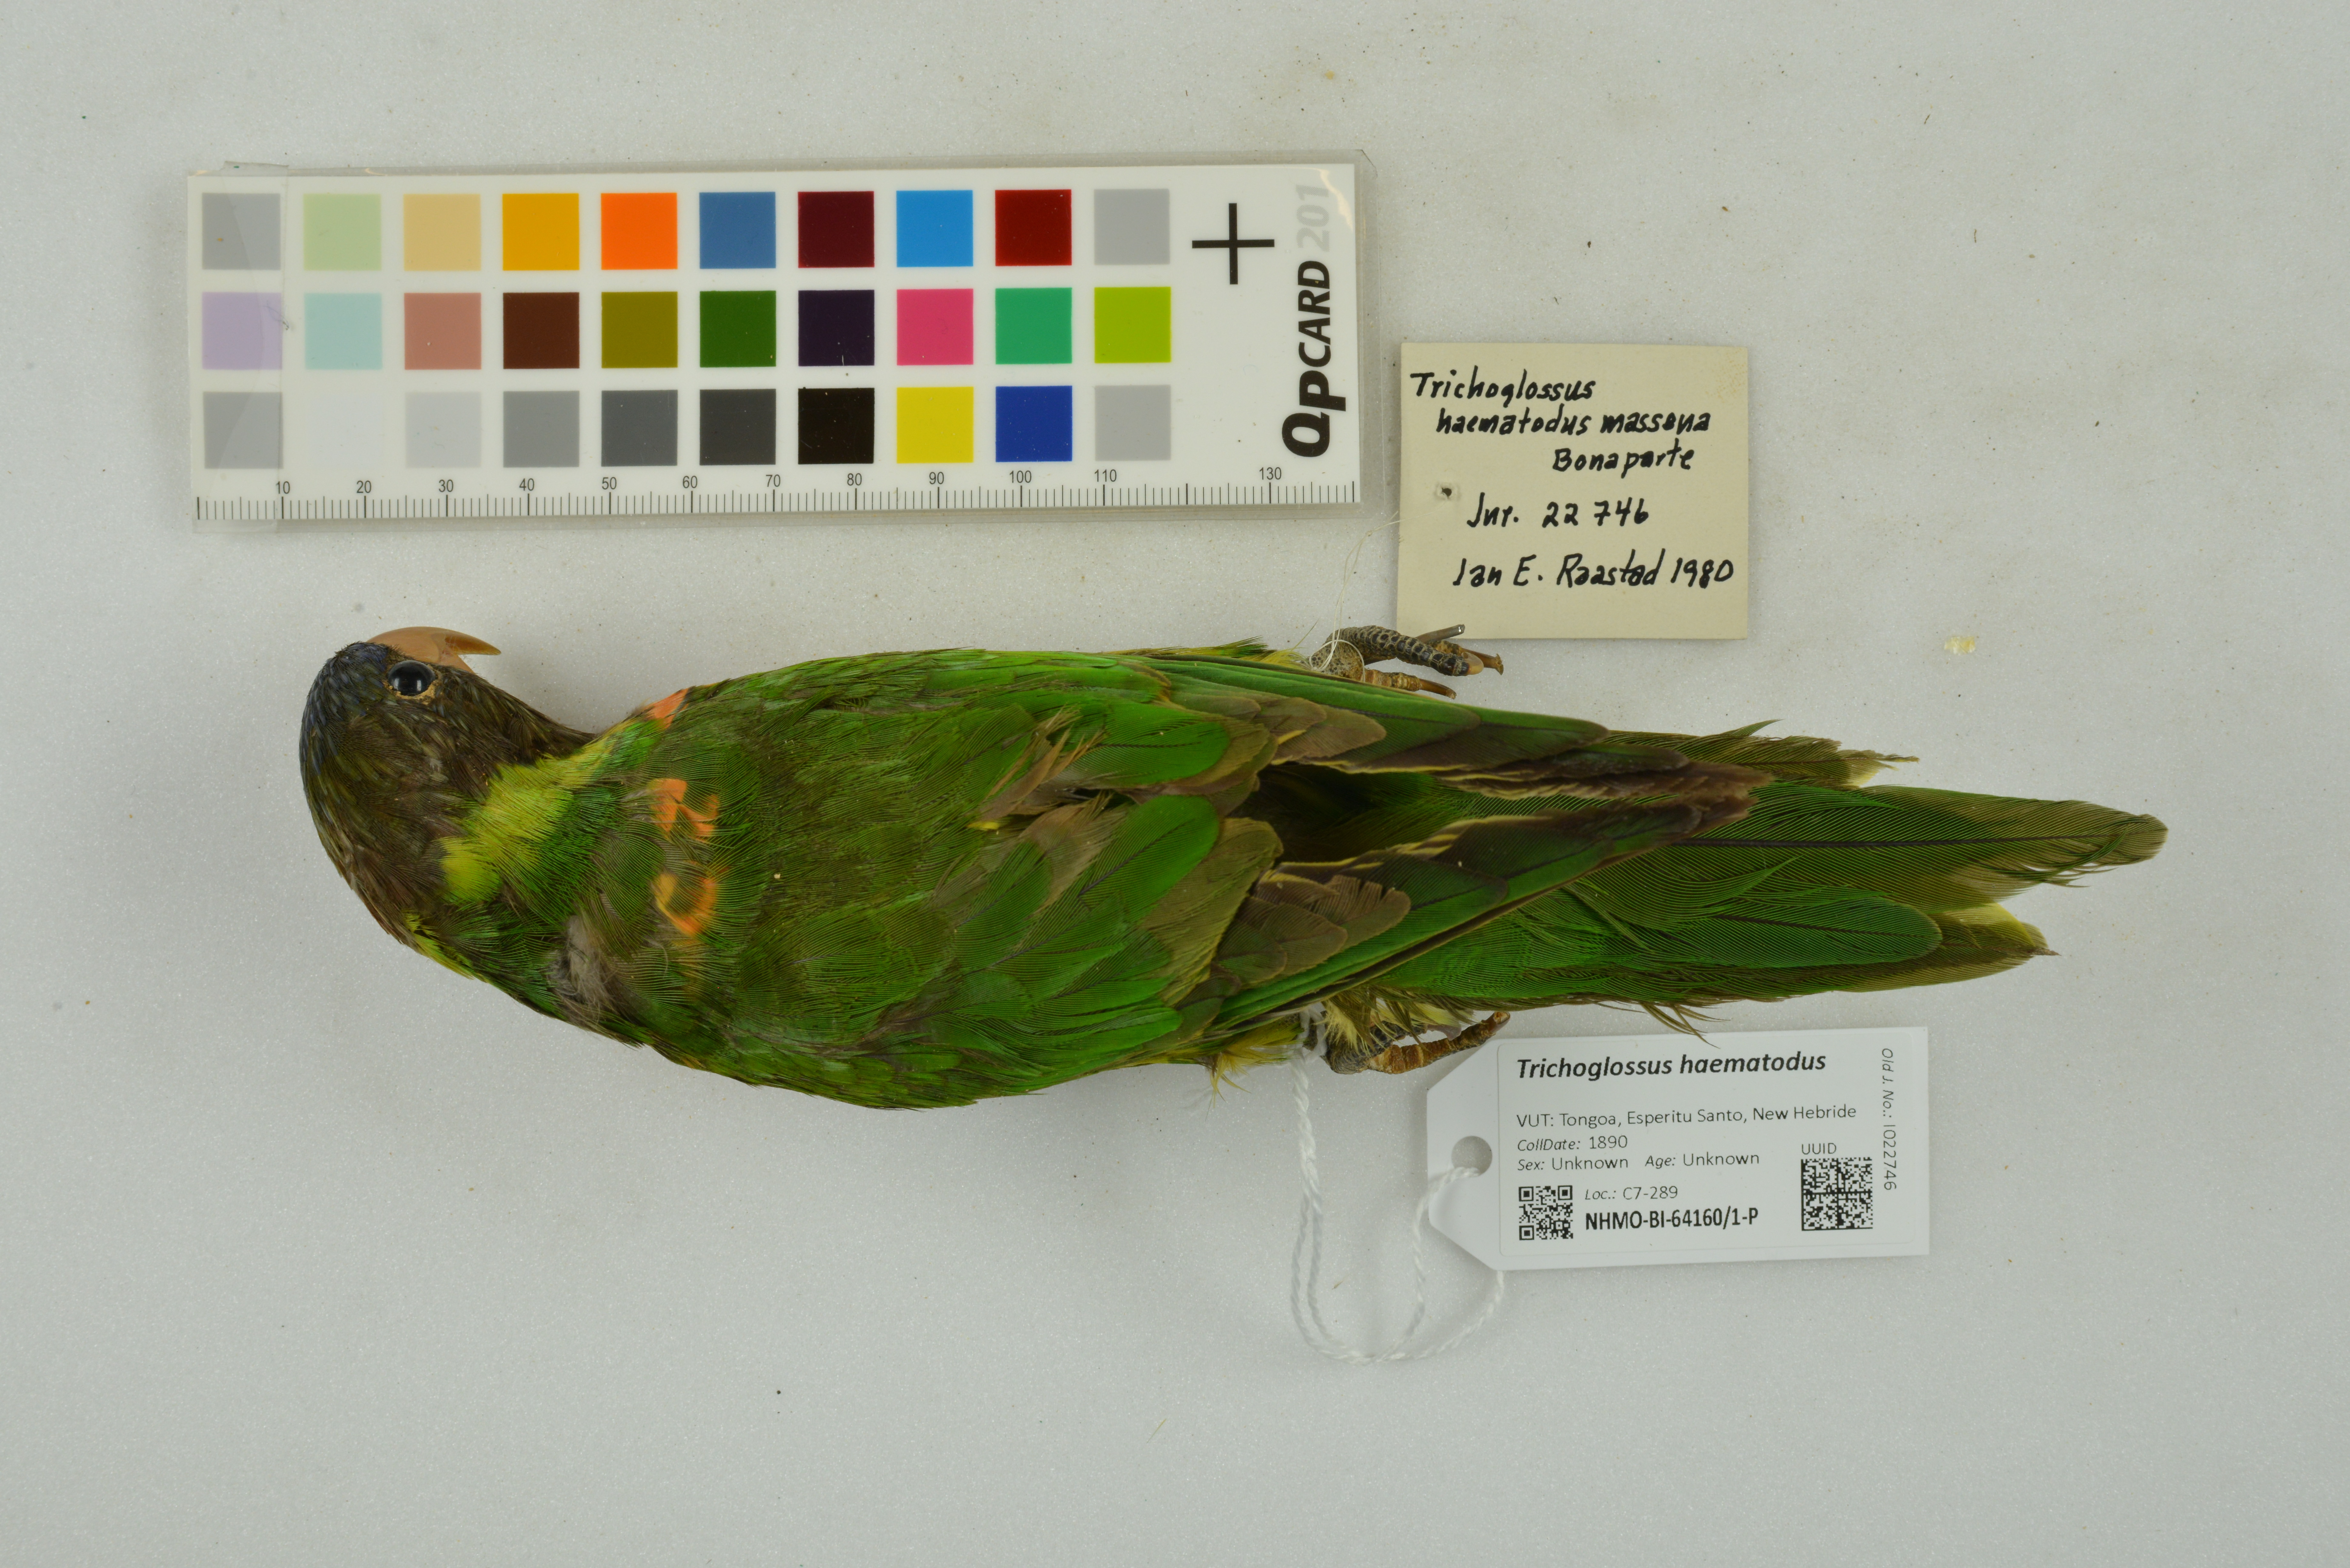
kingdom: Animalia
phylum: Chordata
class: Aves
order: Psittaciformes
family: Psittacidae
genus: Trichoglossus
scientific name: Trichoglossus haematodus
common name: Coconut lorikeet
